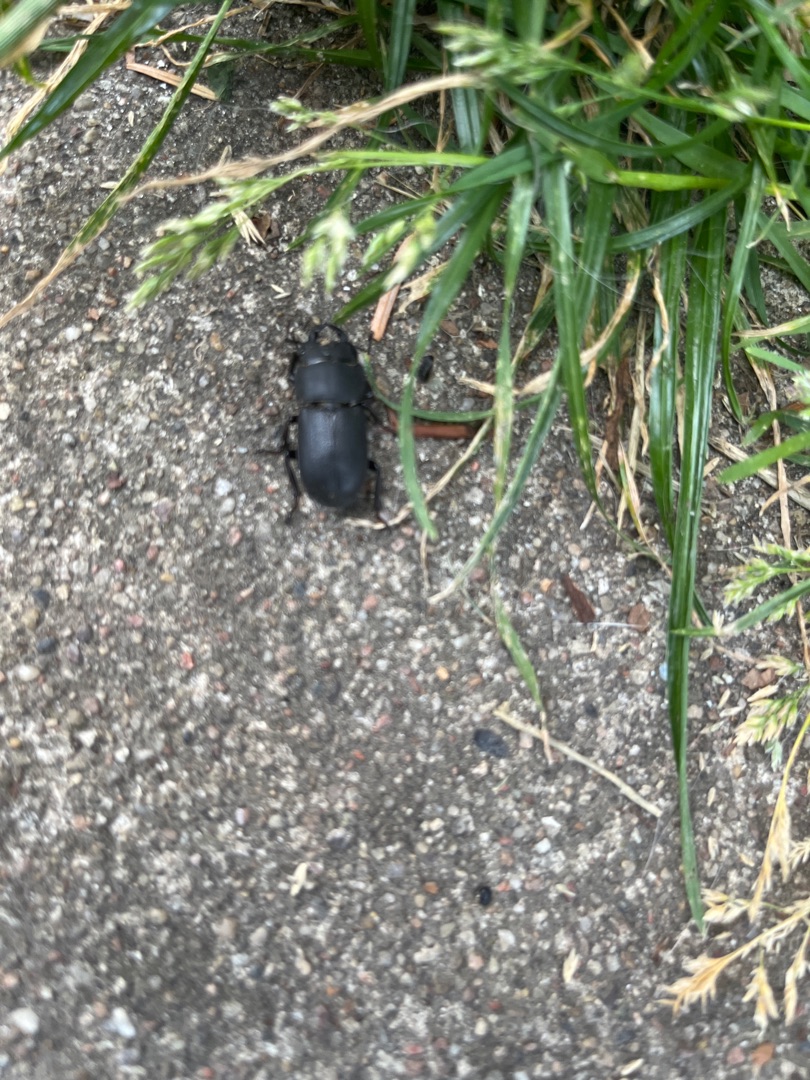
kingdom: Animalia
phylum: Arthropoda
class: Insecta
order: Coleoptera
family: Lucanidae
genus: Dorcus
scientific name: Dorcus parallelipipedus
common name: Bøghjort
